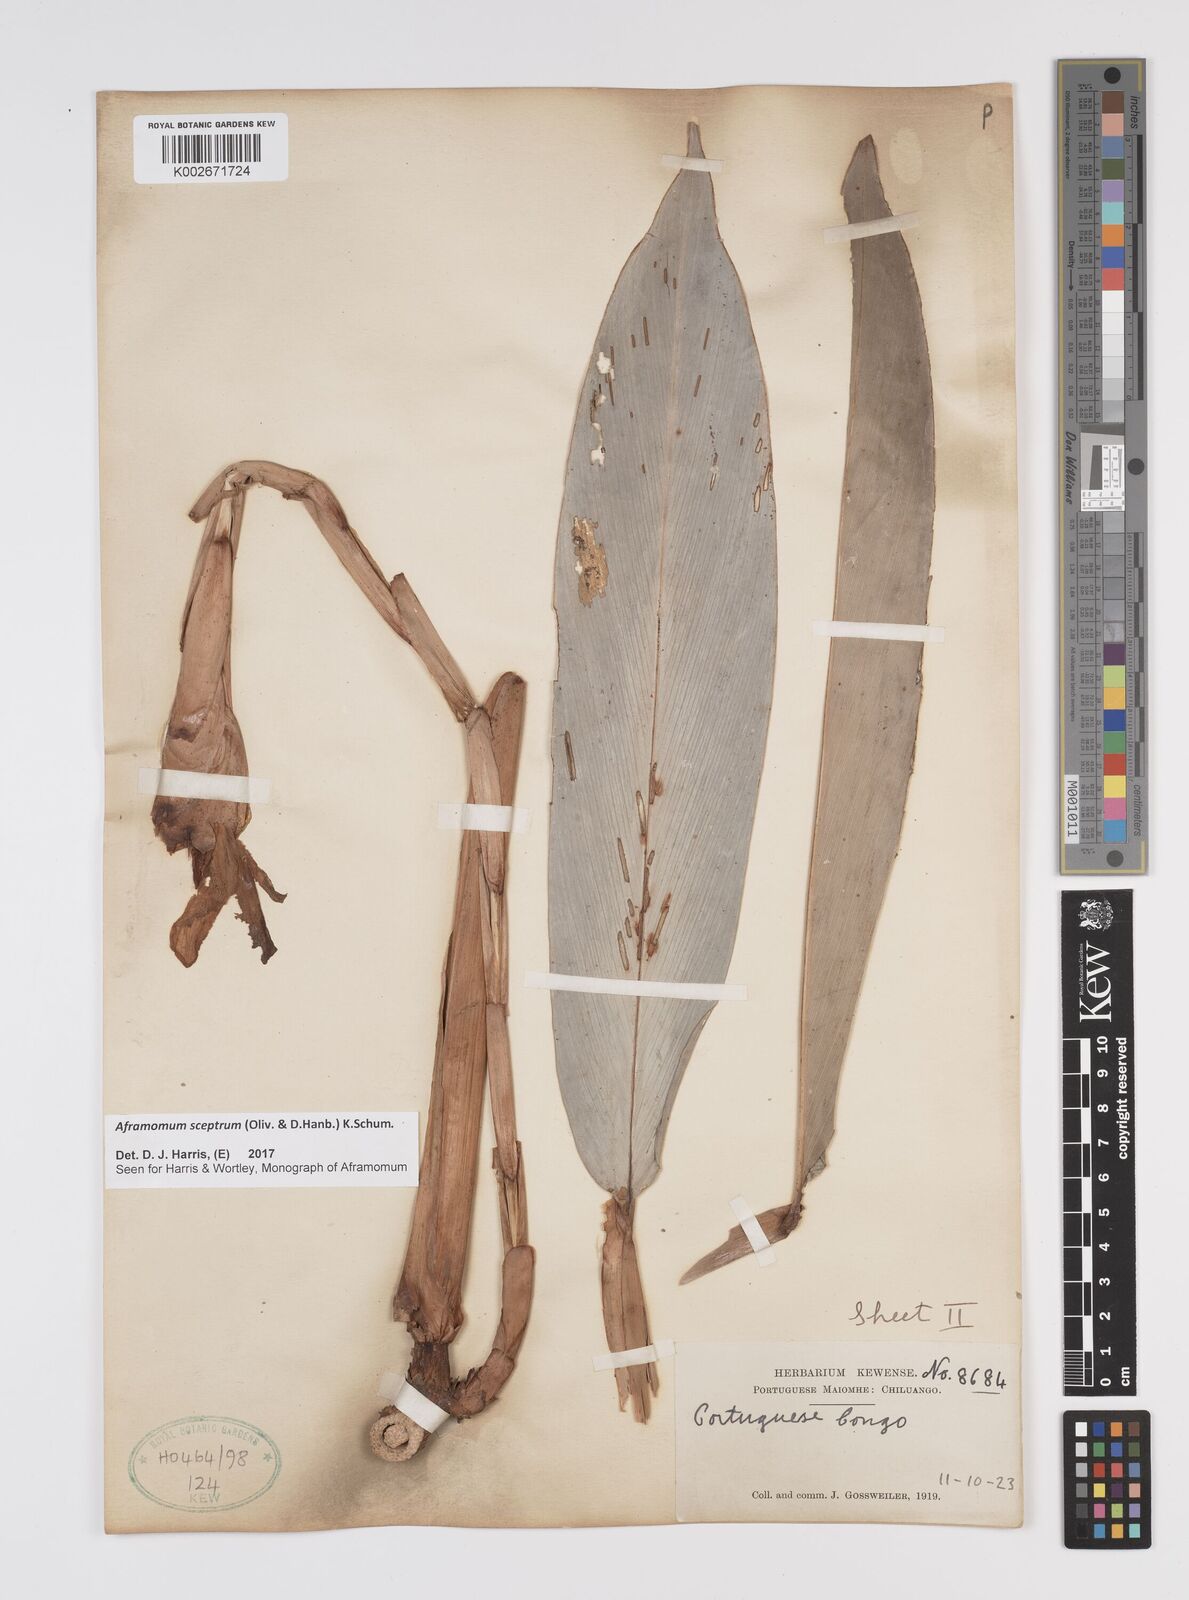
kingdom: Plantae
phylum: Tracheophyta
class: Liliopsida
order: Zingiberales
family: Zingiberaceae
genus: Aframomum
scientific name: Aframomum cereum
